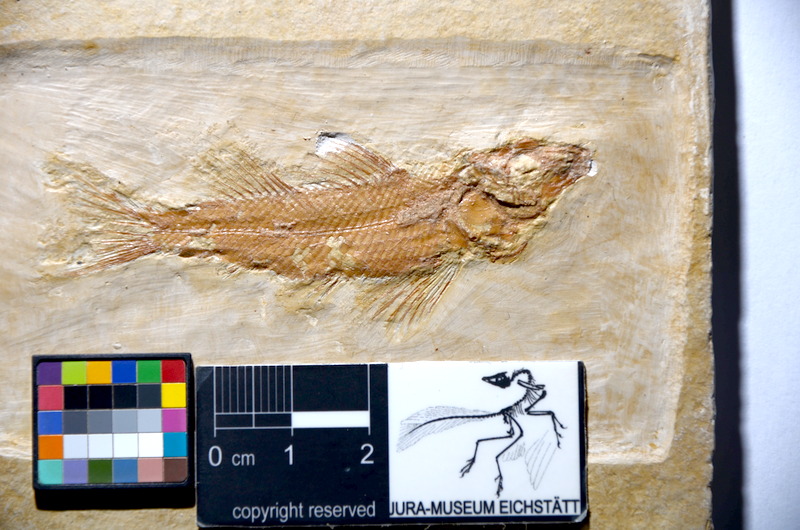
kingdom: Animalia
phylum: Chordata
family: Macrosemiidae
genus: Notagogus
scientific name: Notagogus decoratus
